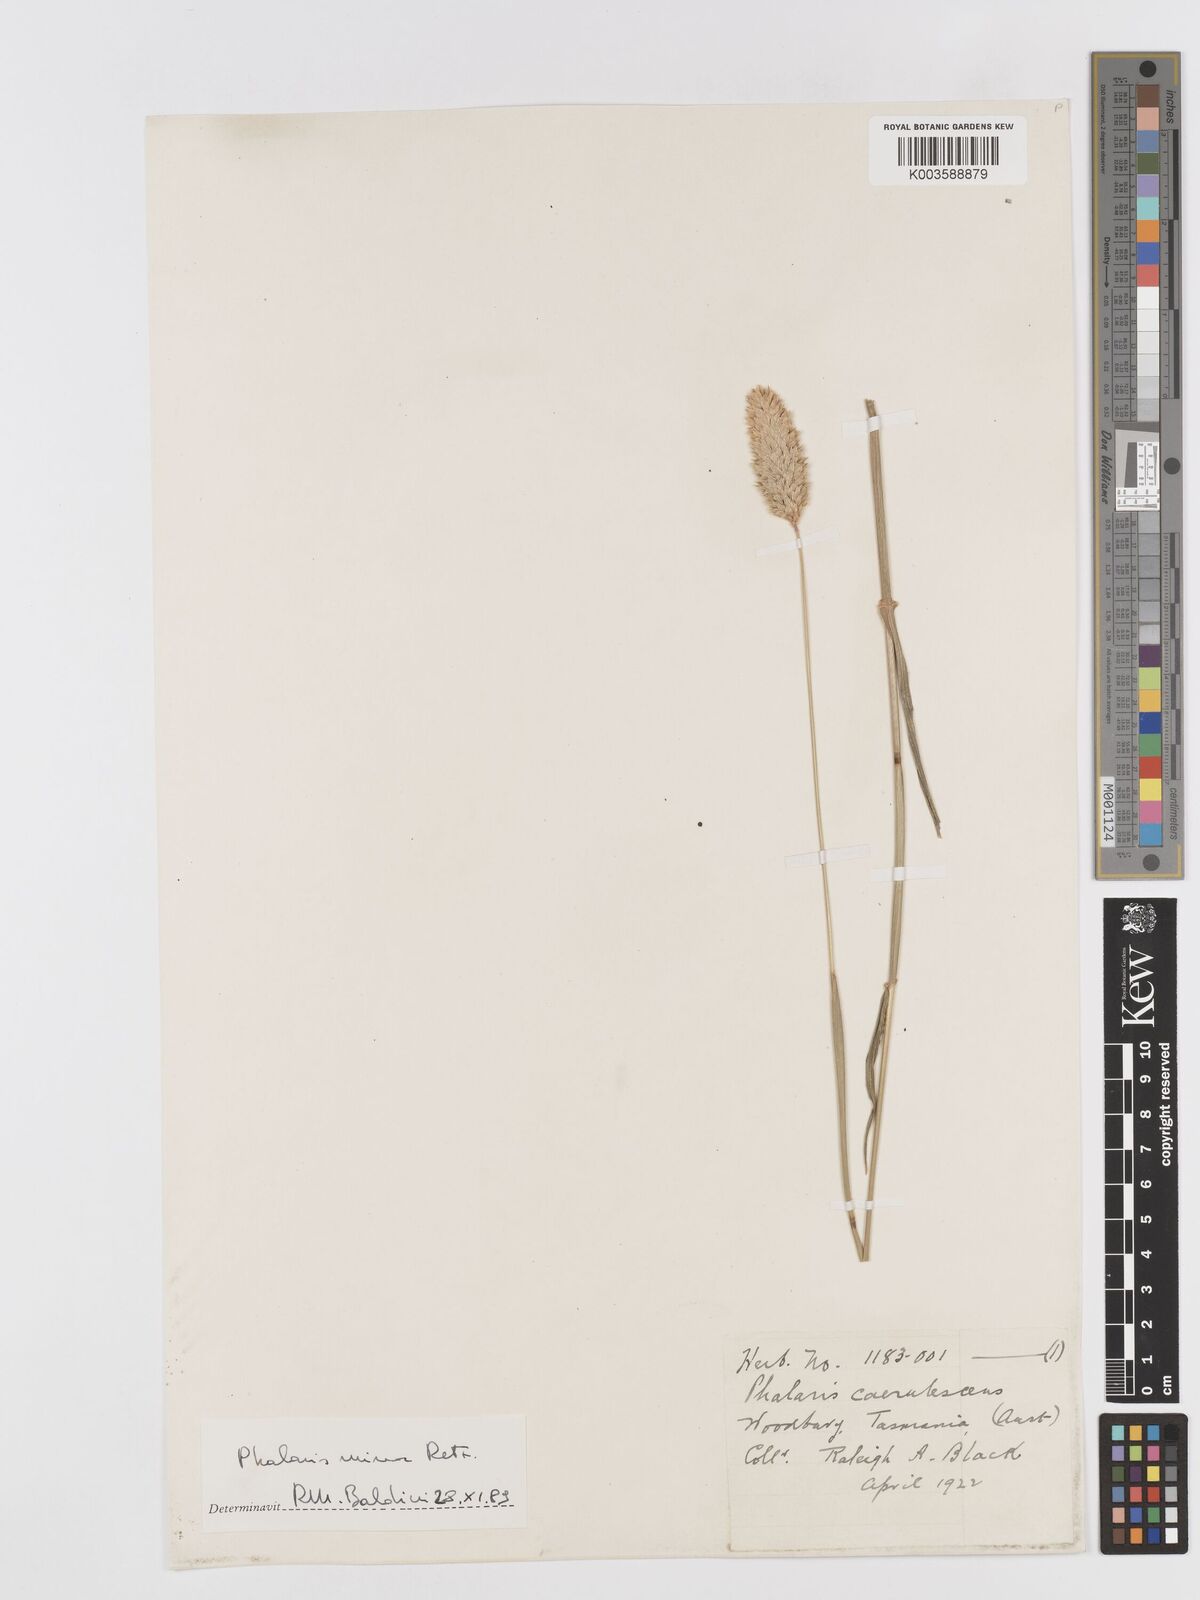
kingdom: Plantae
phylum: Tracheophyta
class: Liliopsida
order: Poales
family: Poaceae
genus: Phalaris
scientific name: Phalaris minor
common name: Littleseed canarygrass
